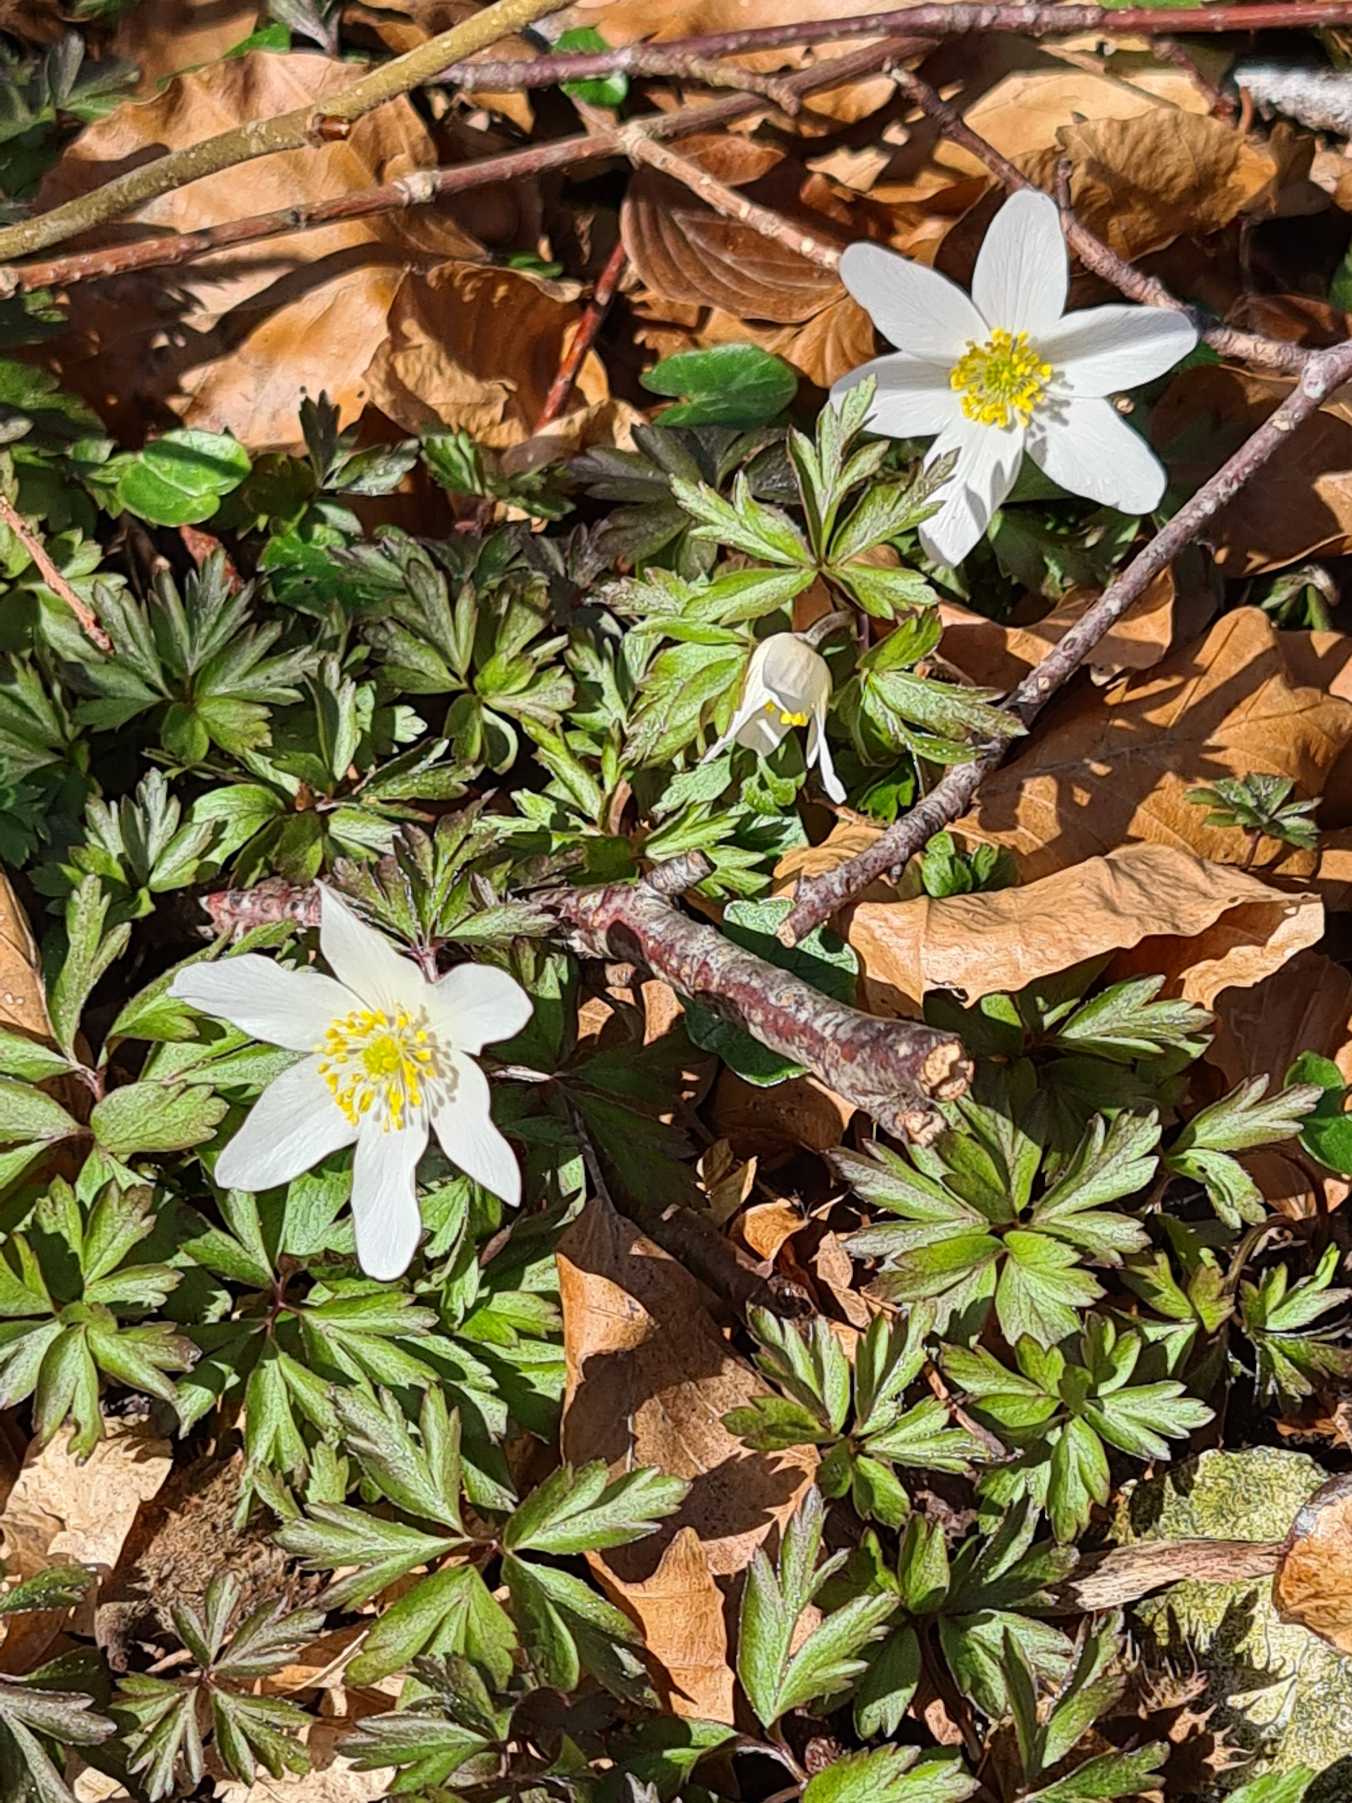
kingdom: Plantae
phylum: Tracheophyta
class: Magnoliopsida
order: Ranunculales
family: Ranunculaceae
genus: Anemone
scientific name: Anemone nemorosa
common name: Hvid anemone
